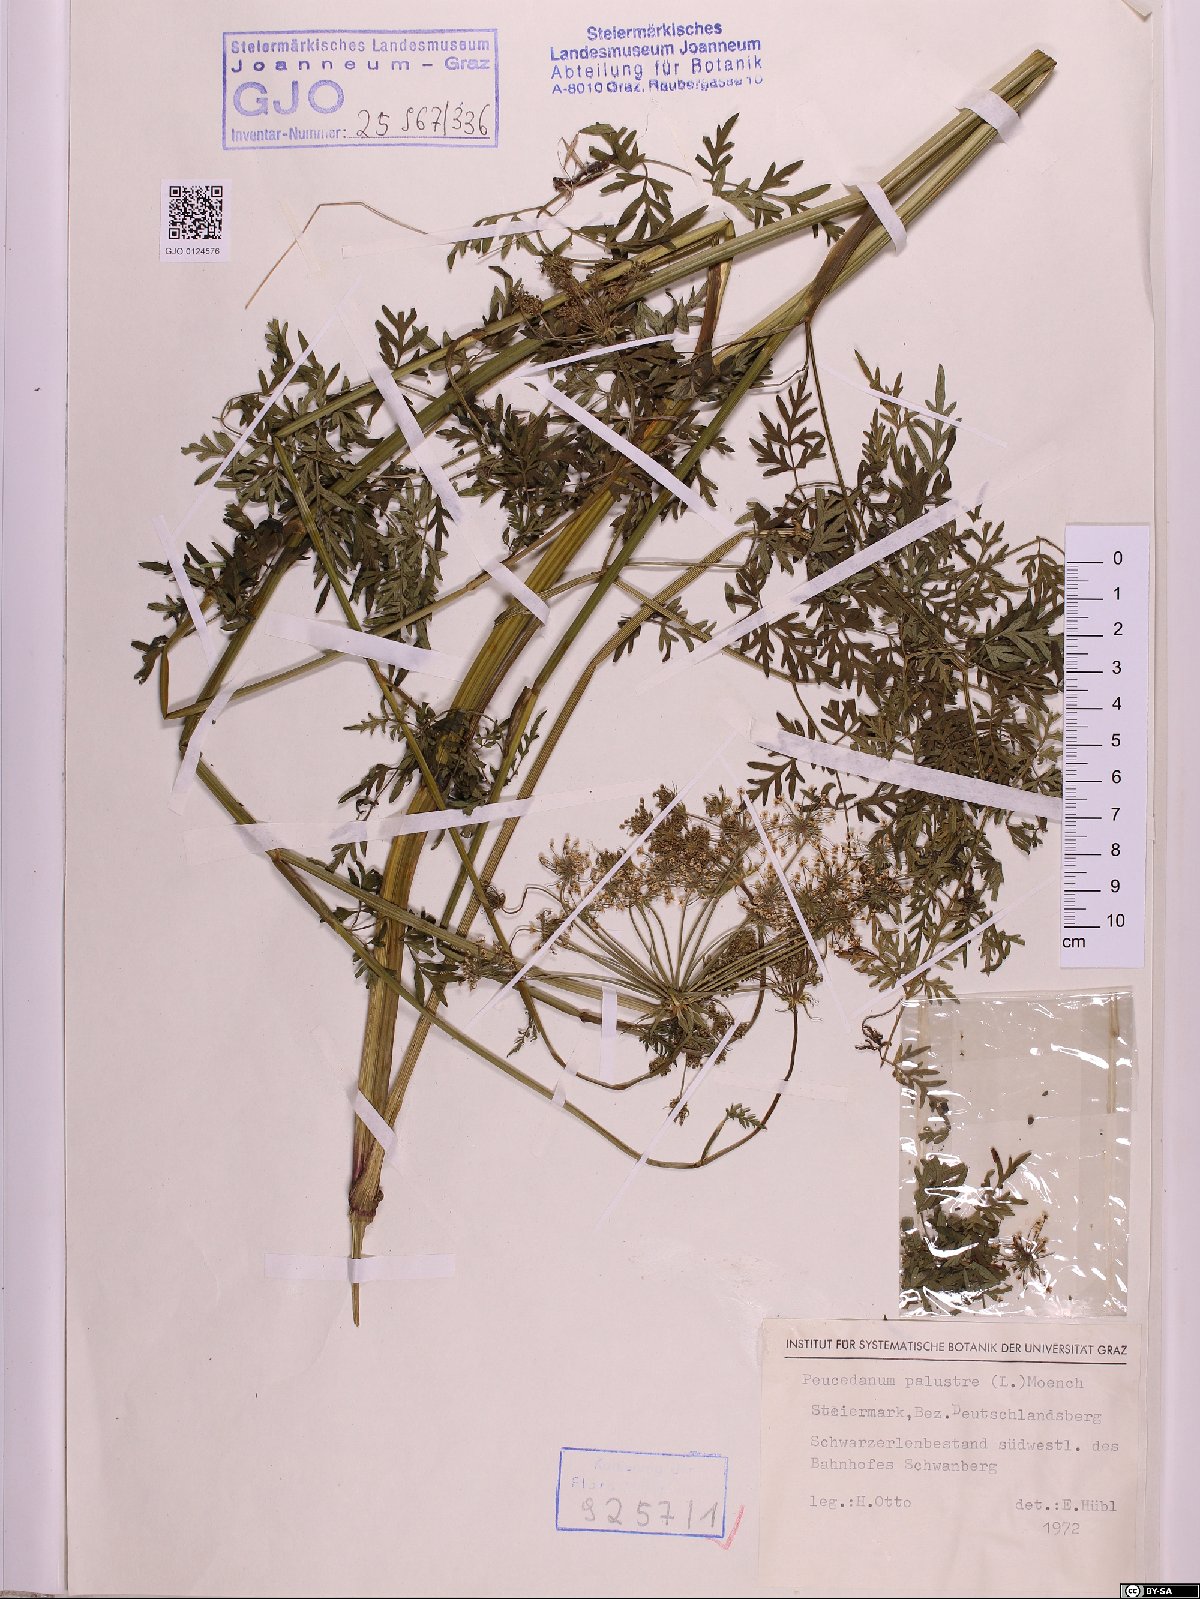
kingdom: Plantae
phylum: Tracheophyta
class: Magnoliopsida
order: Apiales
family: Apiaceae
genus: Thysselinum
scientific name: Thysselinum palustre
